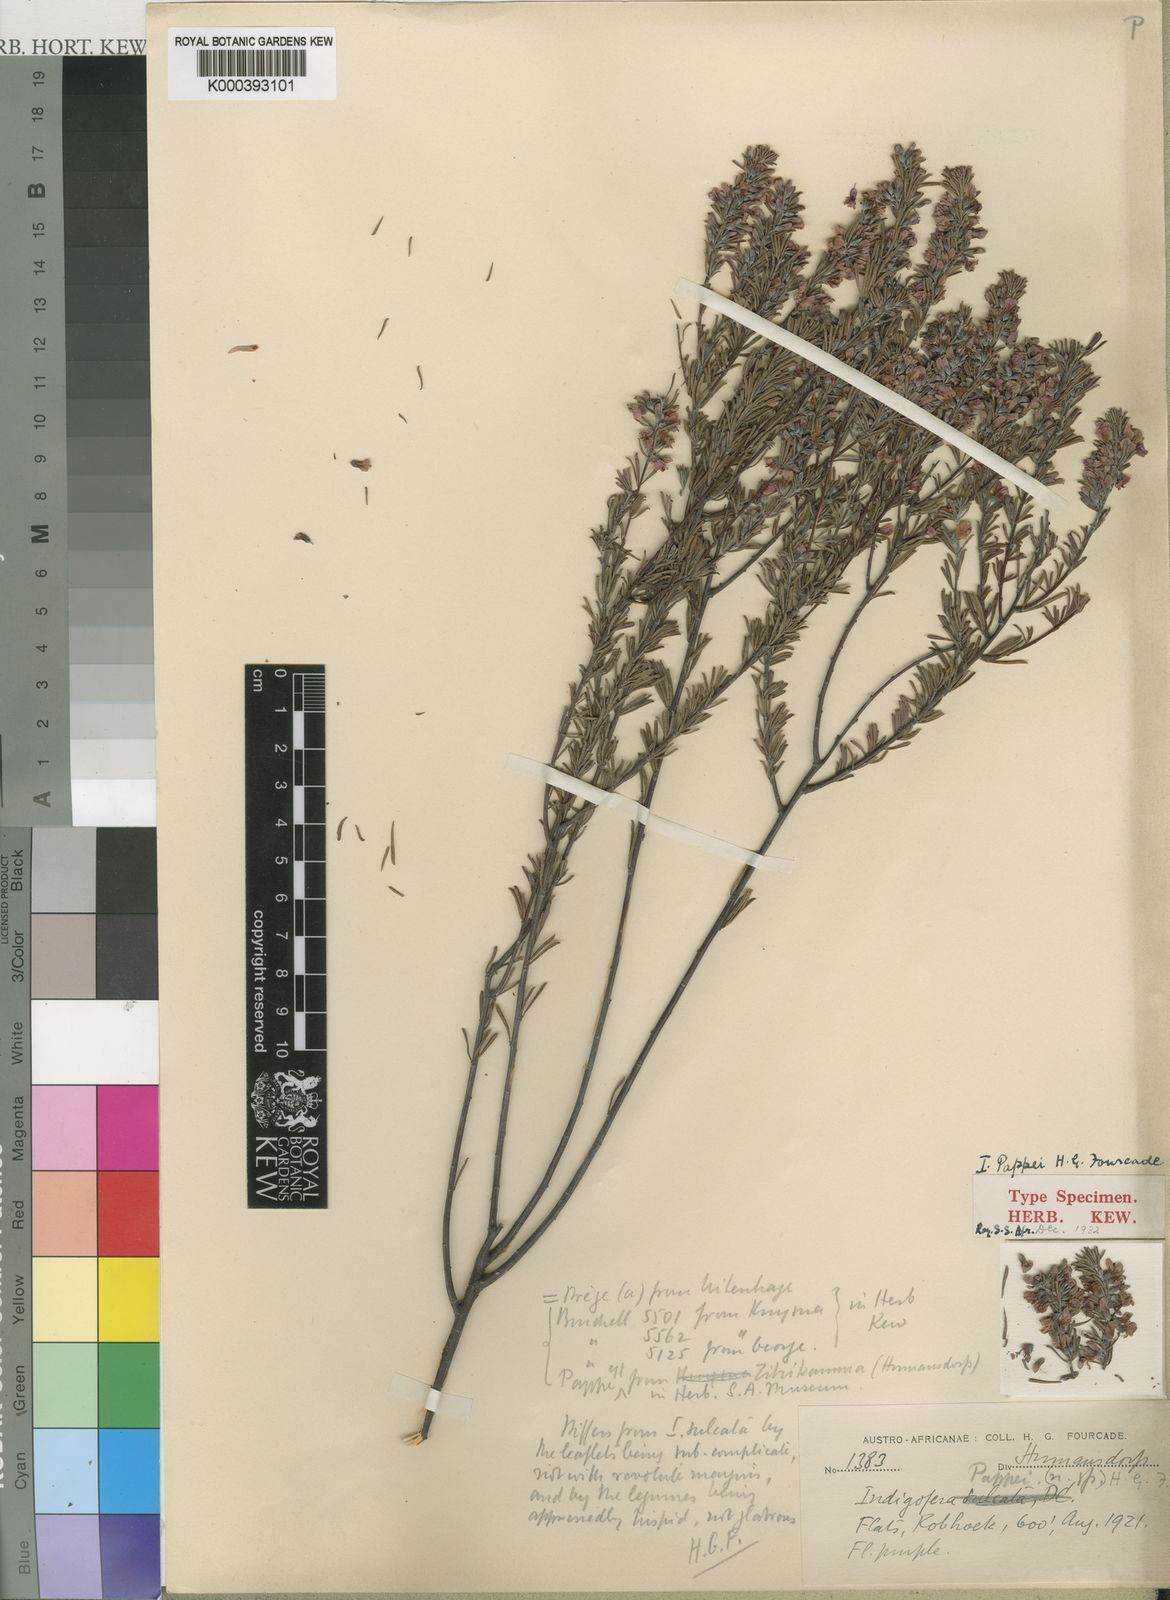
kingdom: Plantae
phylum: Tracheophyta
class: Magnoliopsida
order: Fabales
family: Fabaceae
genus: Indigofera
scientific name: Indigofera pappei
